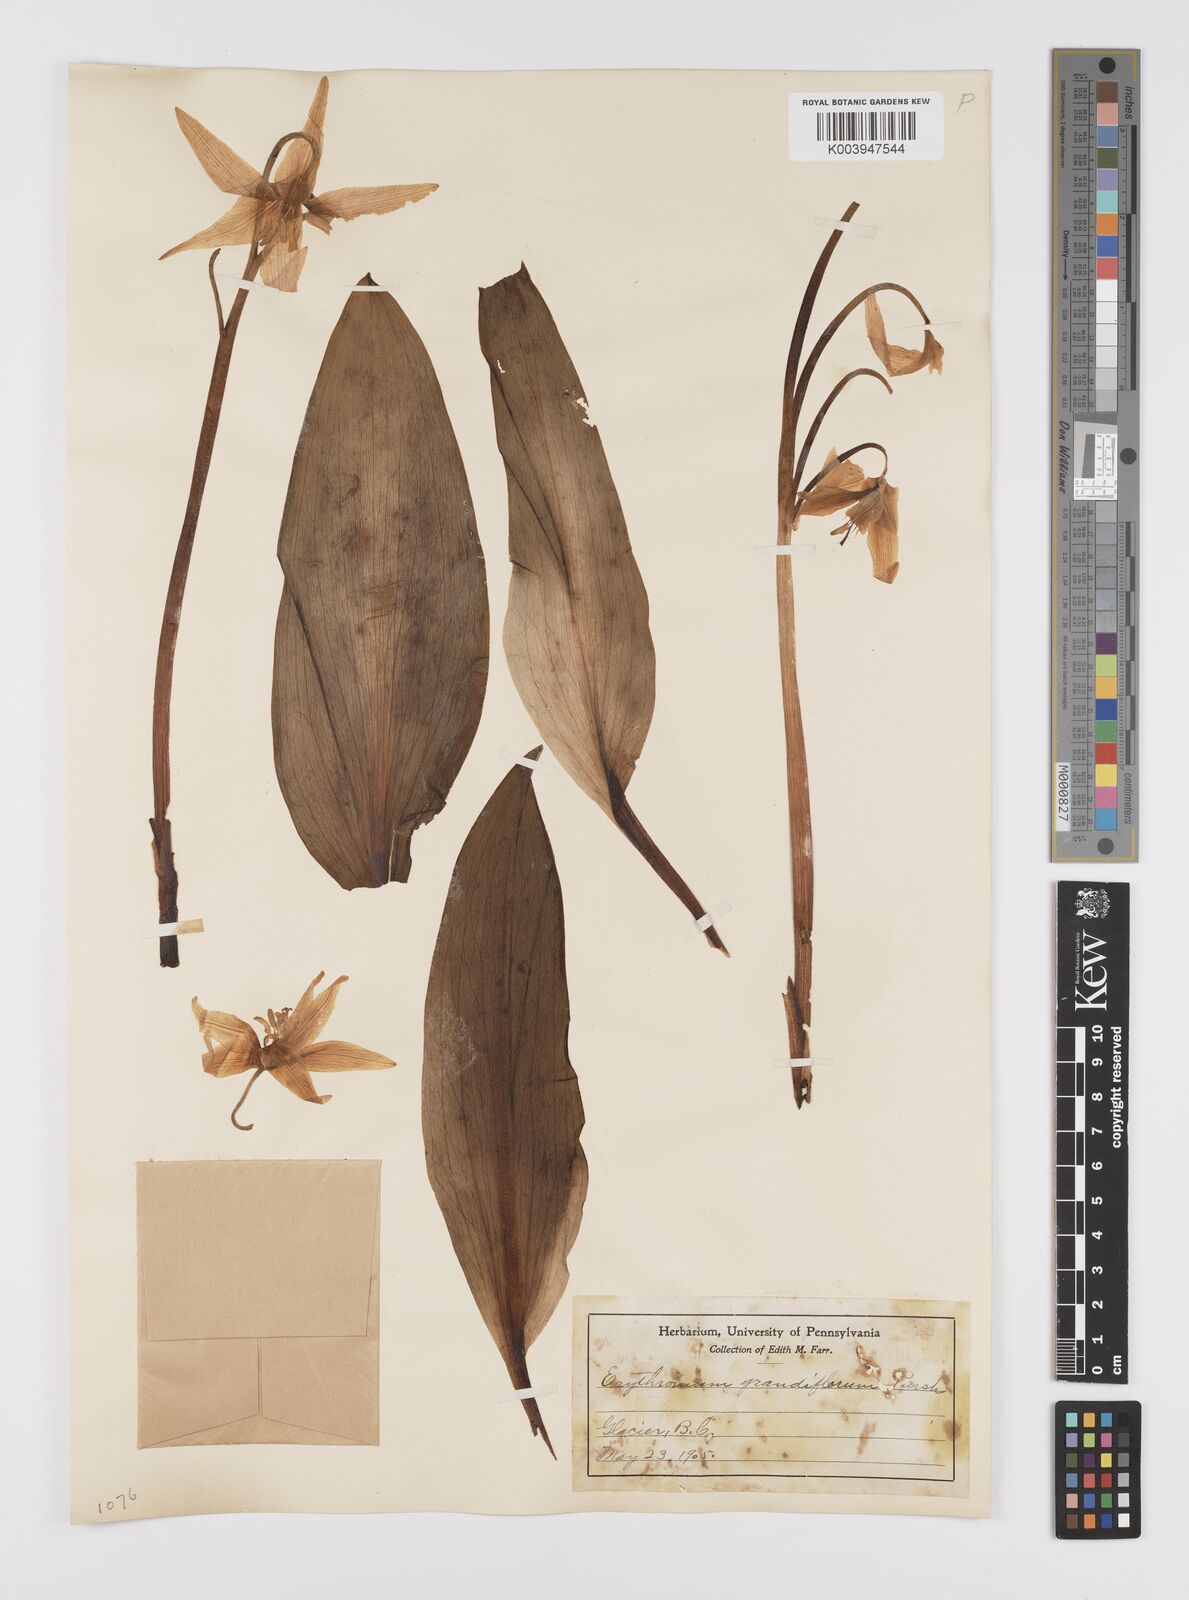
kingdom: Plantae
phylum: Tracheophyta
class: Liliopsida
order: Liliales
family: Liliaceae
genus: Erythronium
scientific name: Erythronium grandiflorum
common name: Avalanche-lily
